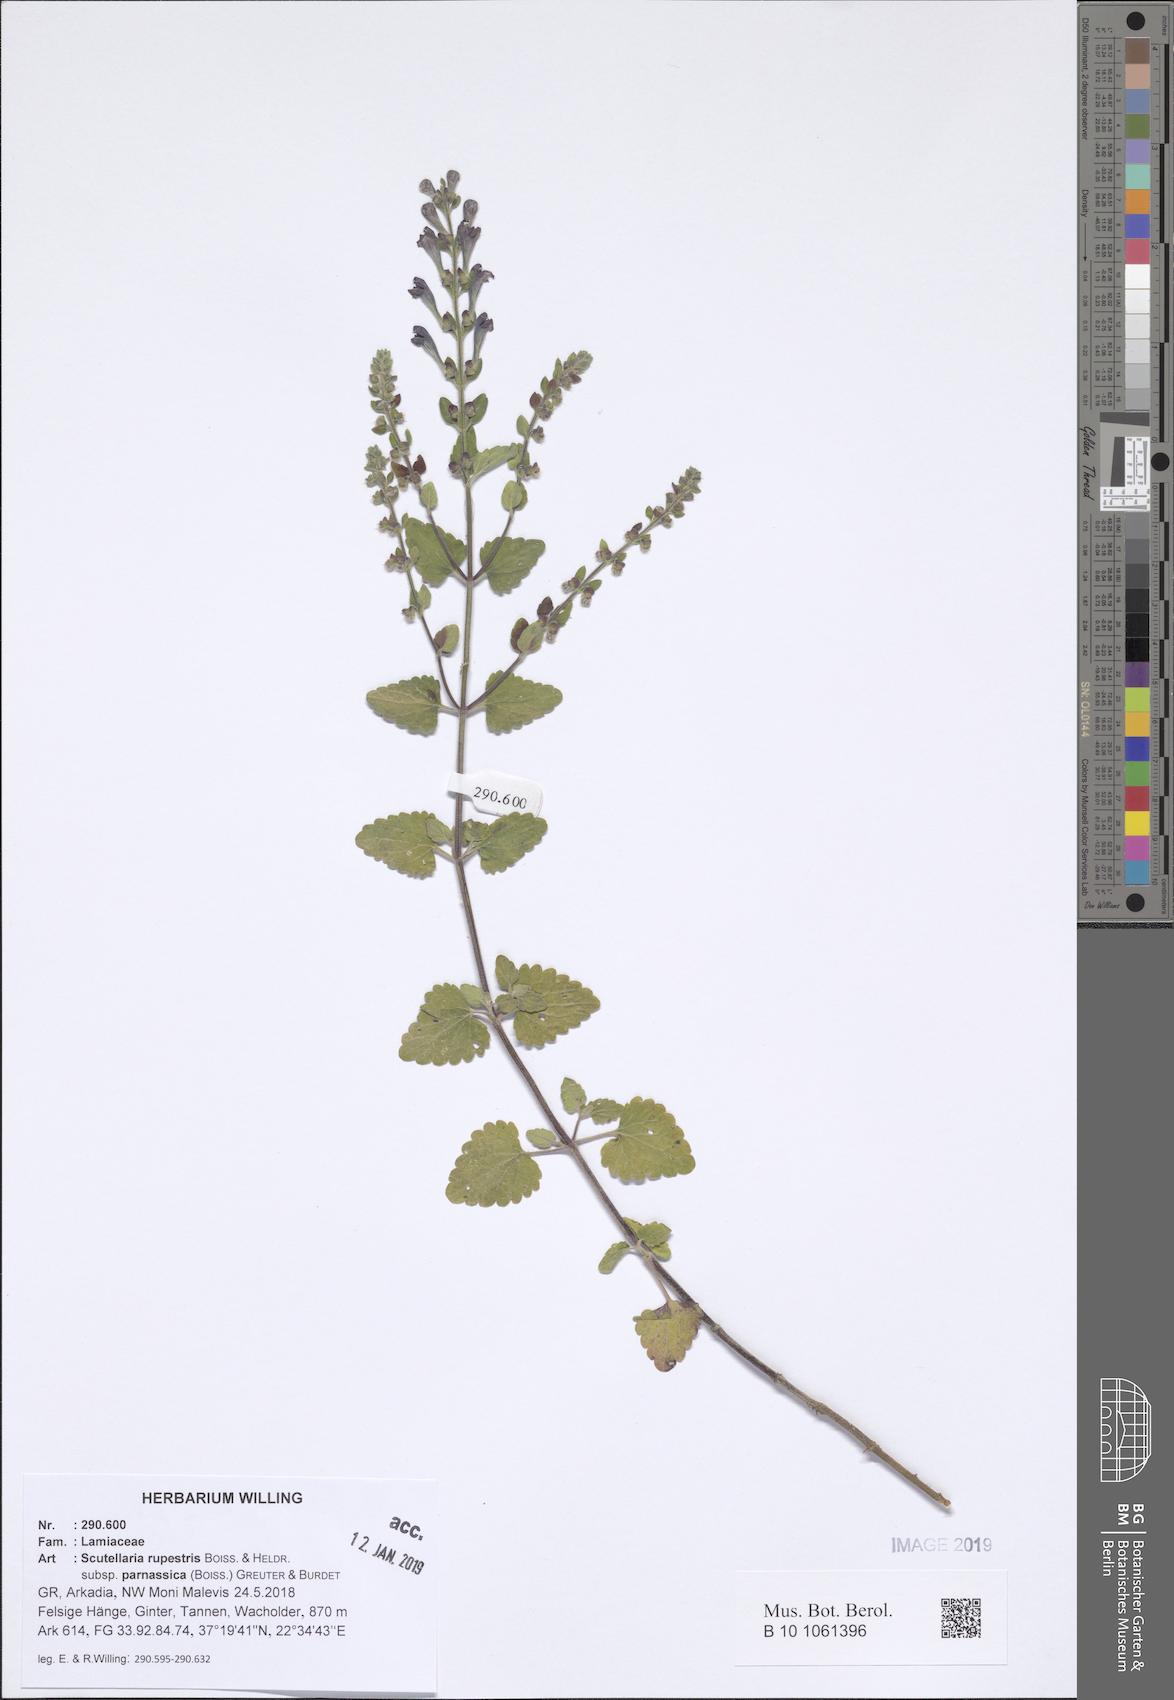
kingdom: Plantae
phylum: Tracheophyta
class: Magnoliopsida
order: Lamiales
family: Lamiaceae
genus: Scutellaria
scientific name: Scutellaria rupestris
